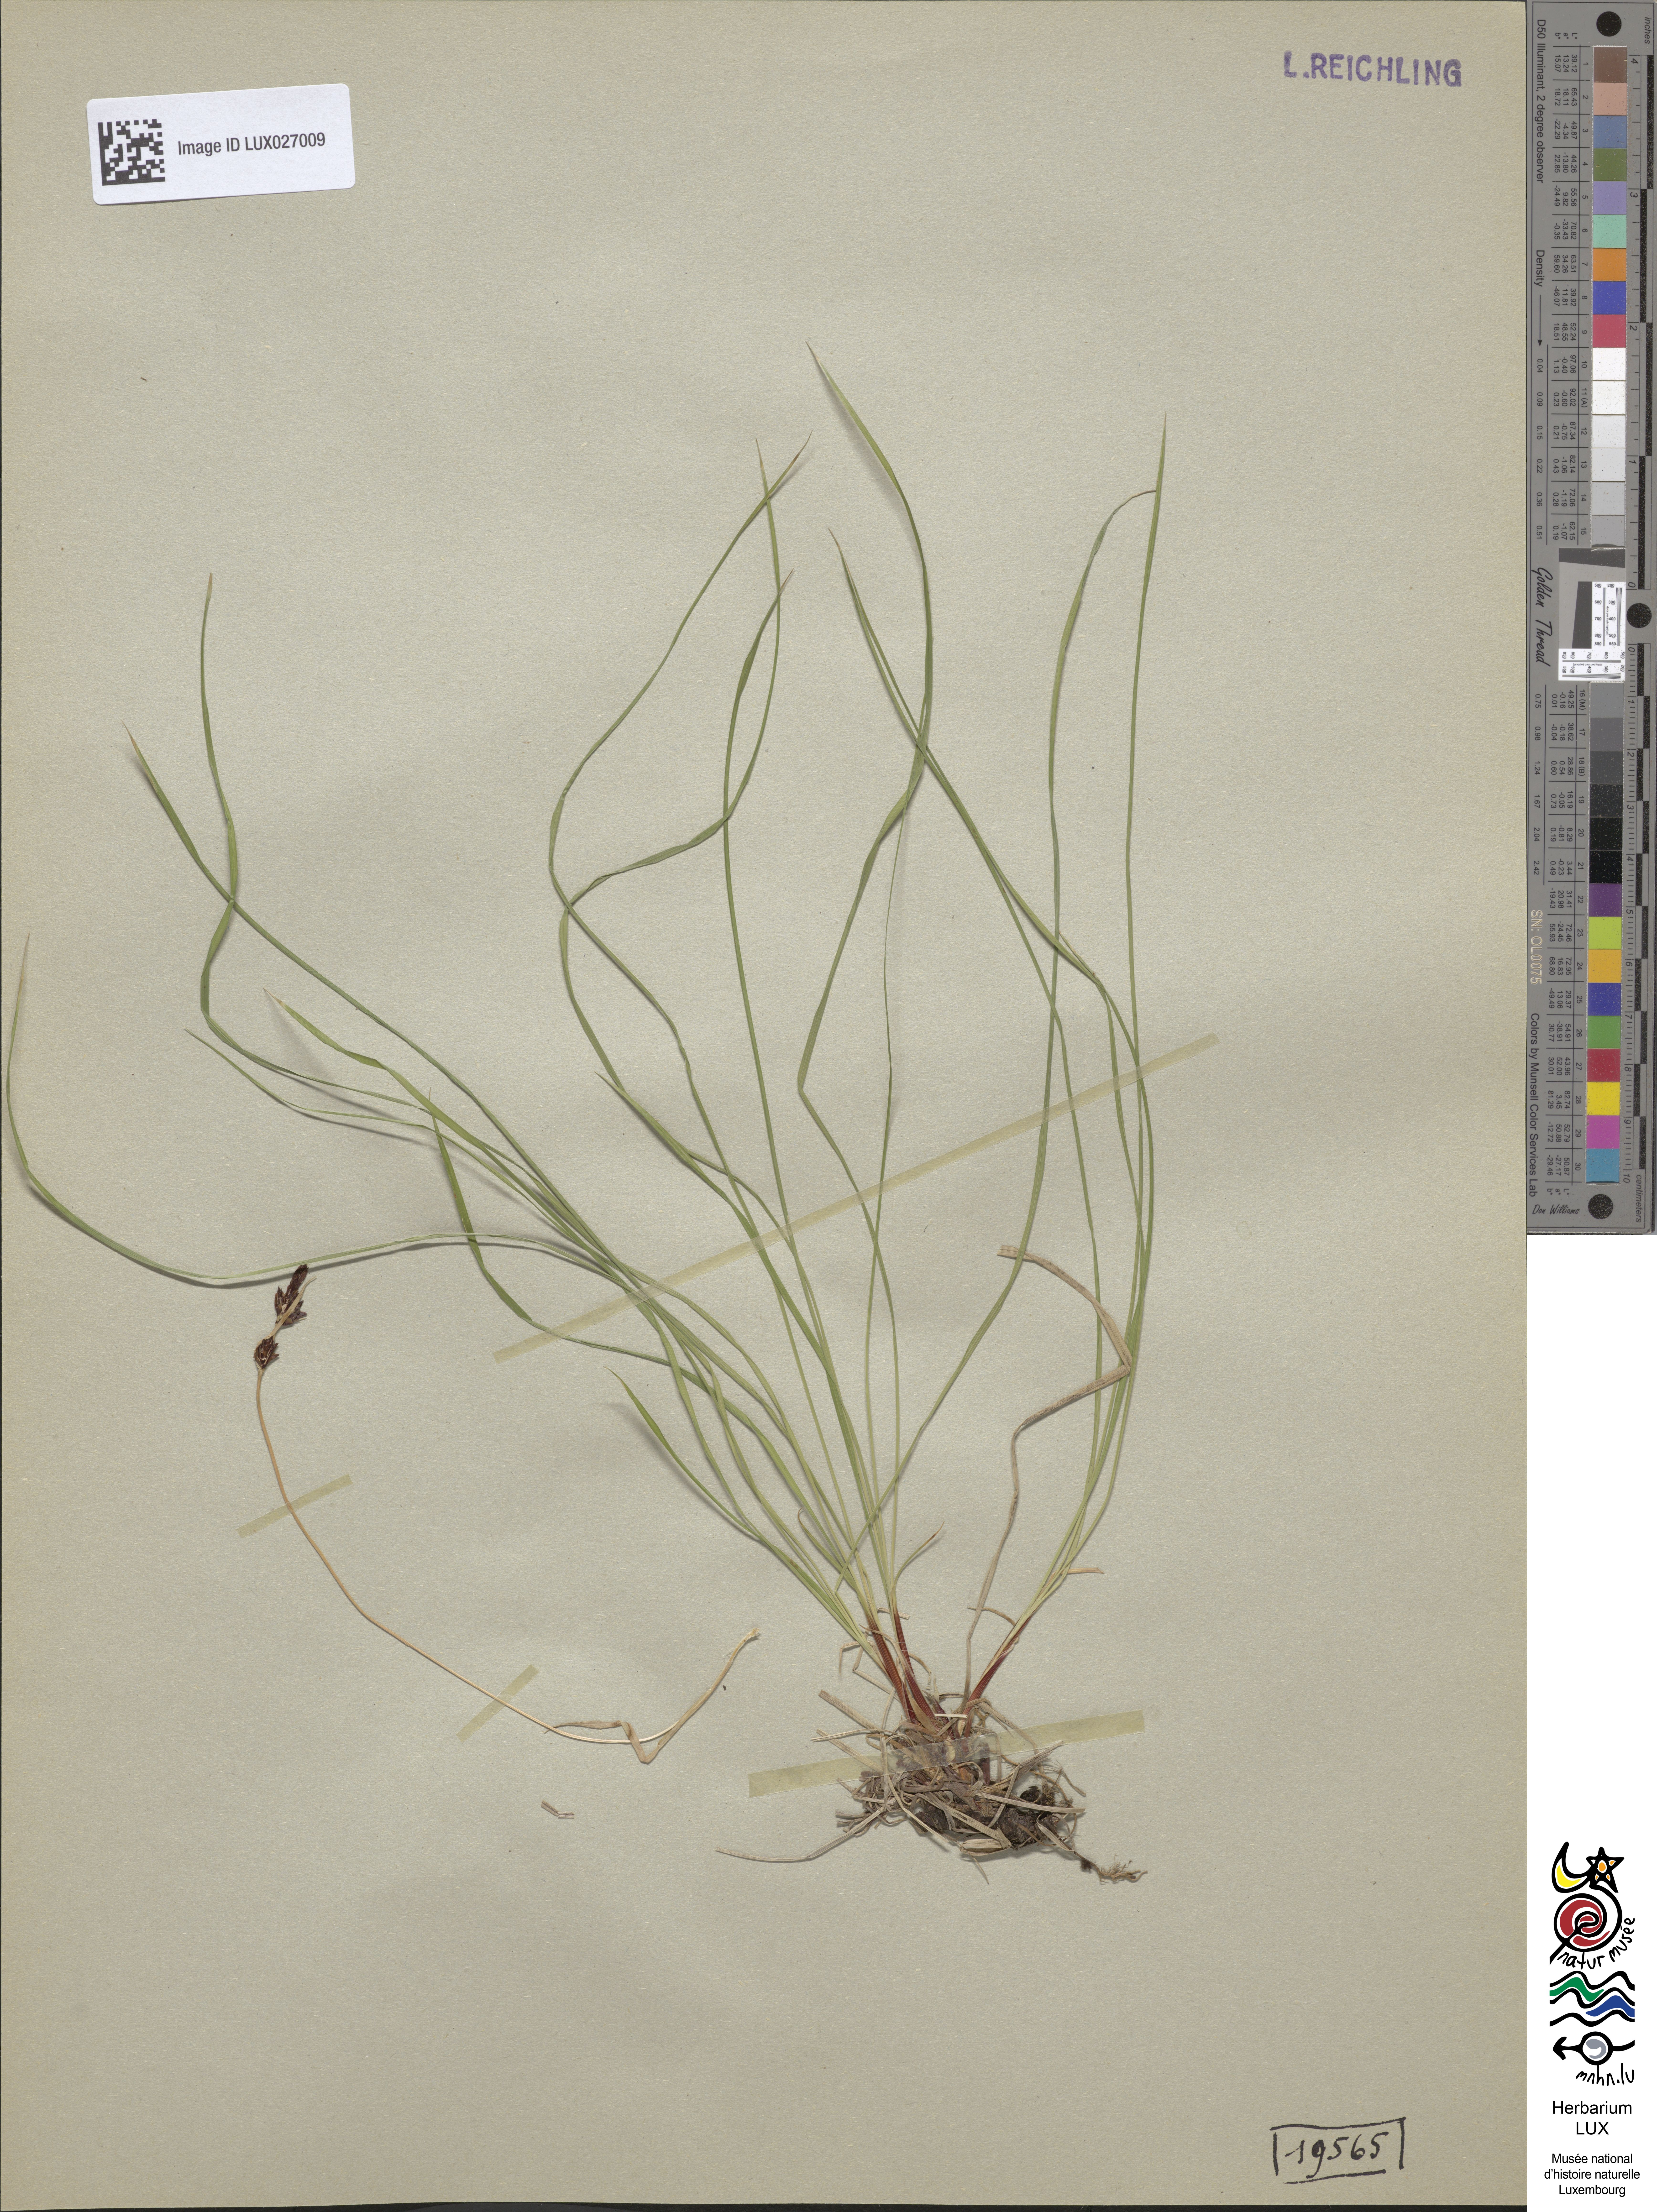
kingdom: Plantae
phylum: Tracheophyta
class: Liliopsida
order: Poales
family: Cyperaceae
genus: Carex
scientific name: Carex montana
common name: Soft-leaved sedge
